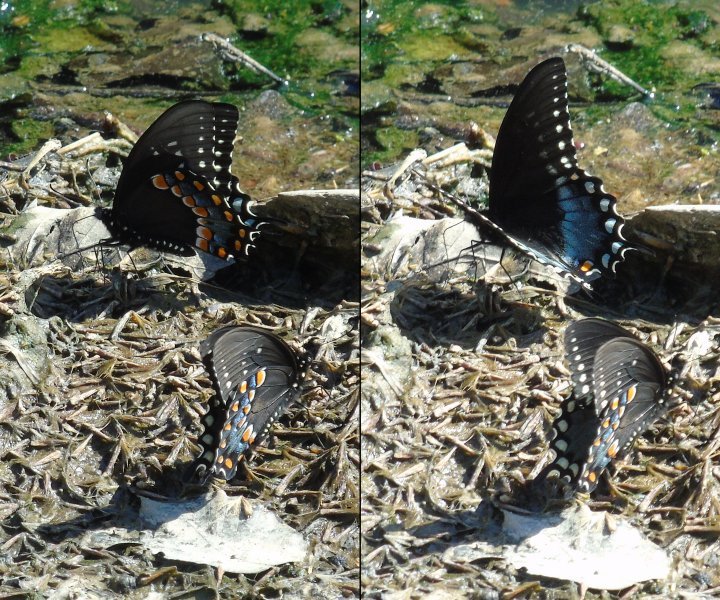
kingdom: Animalia
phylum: Arthropoda
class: Insecta
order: Lepidoptera
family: Papilionidae
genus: Papilio
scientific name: Papilio
